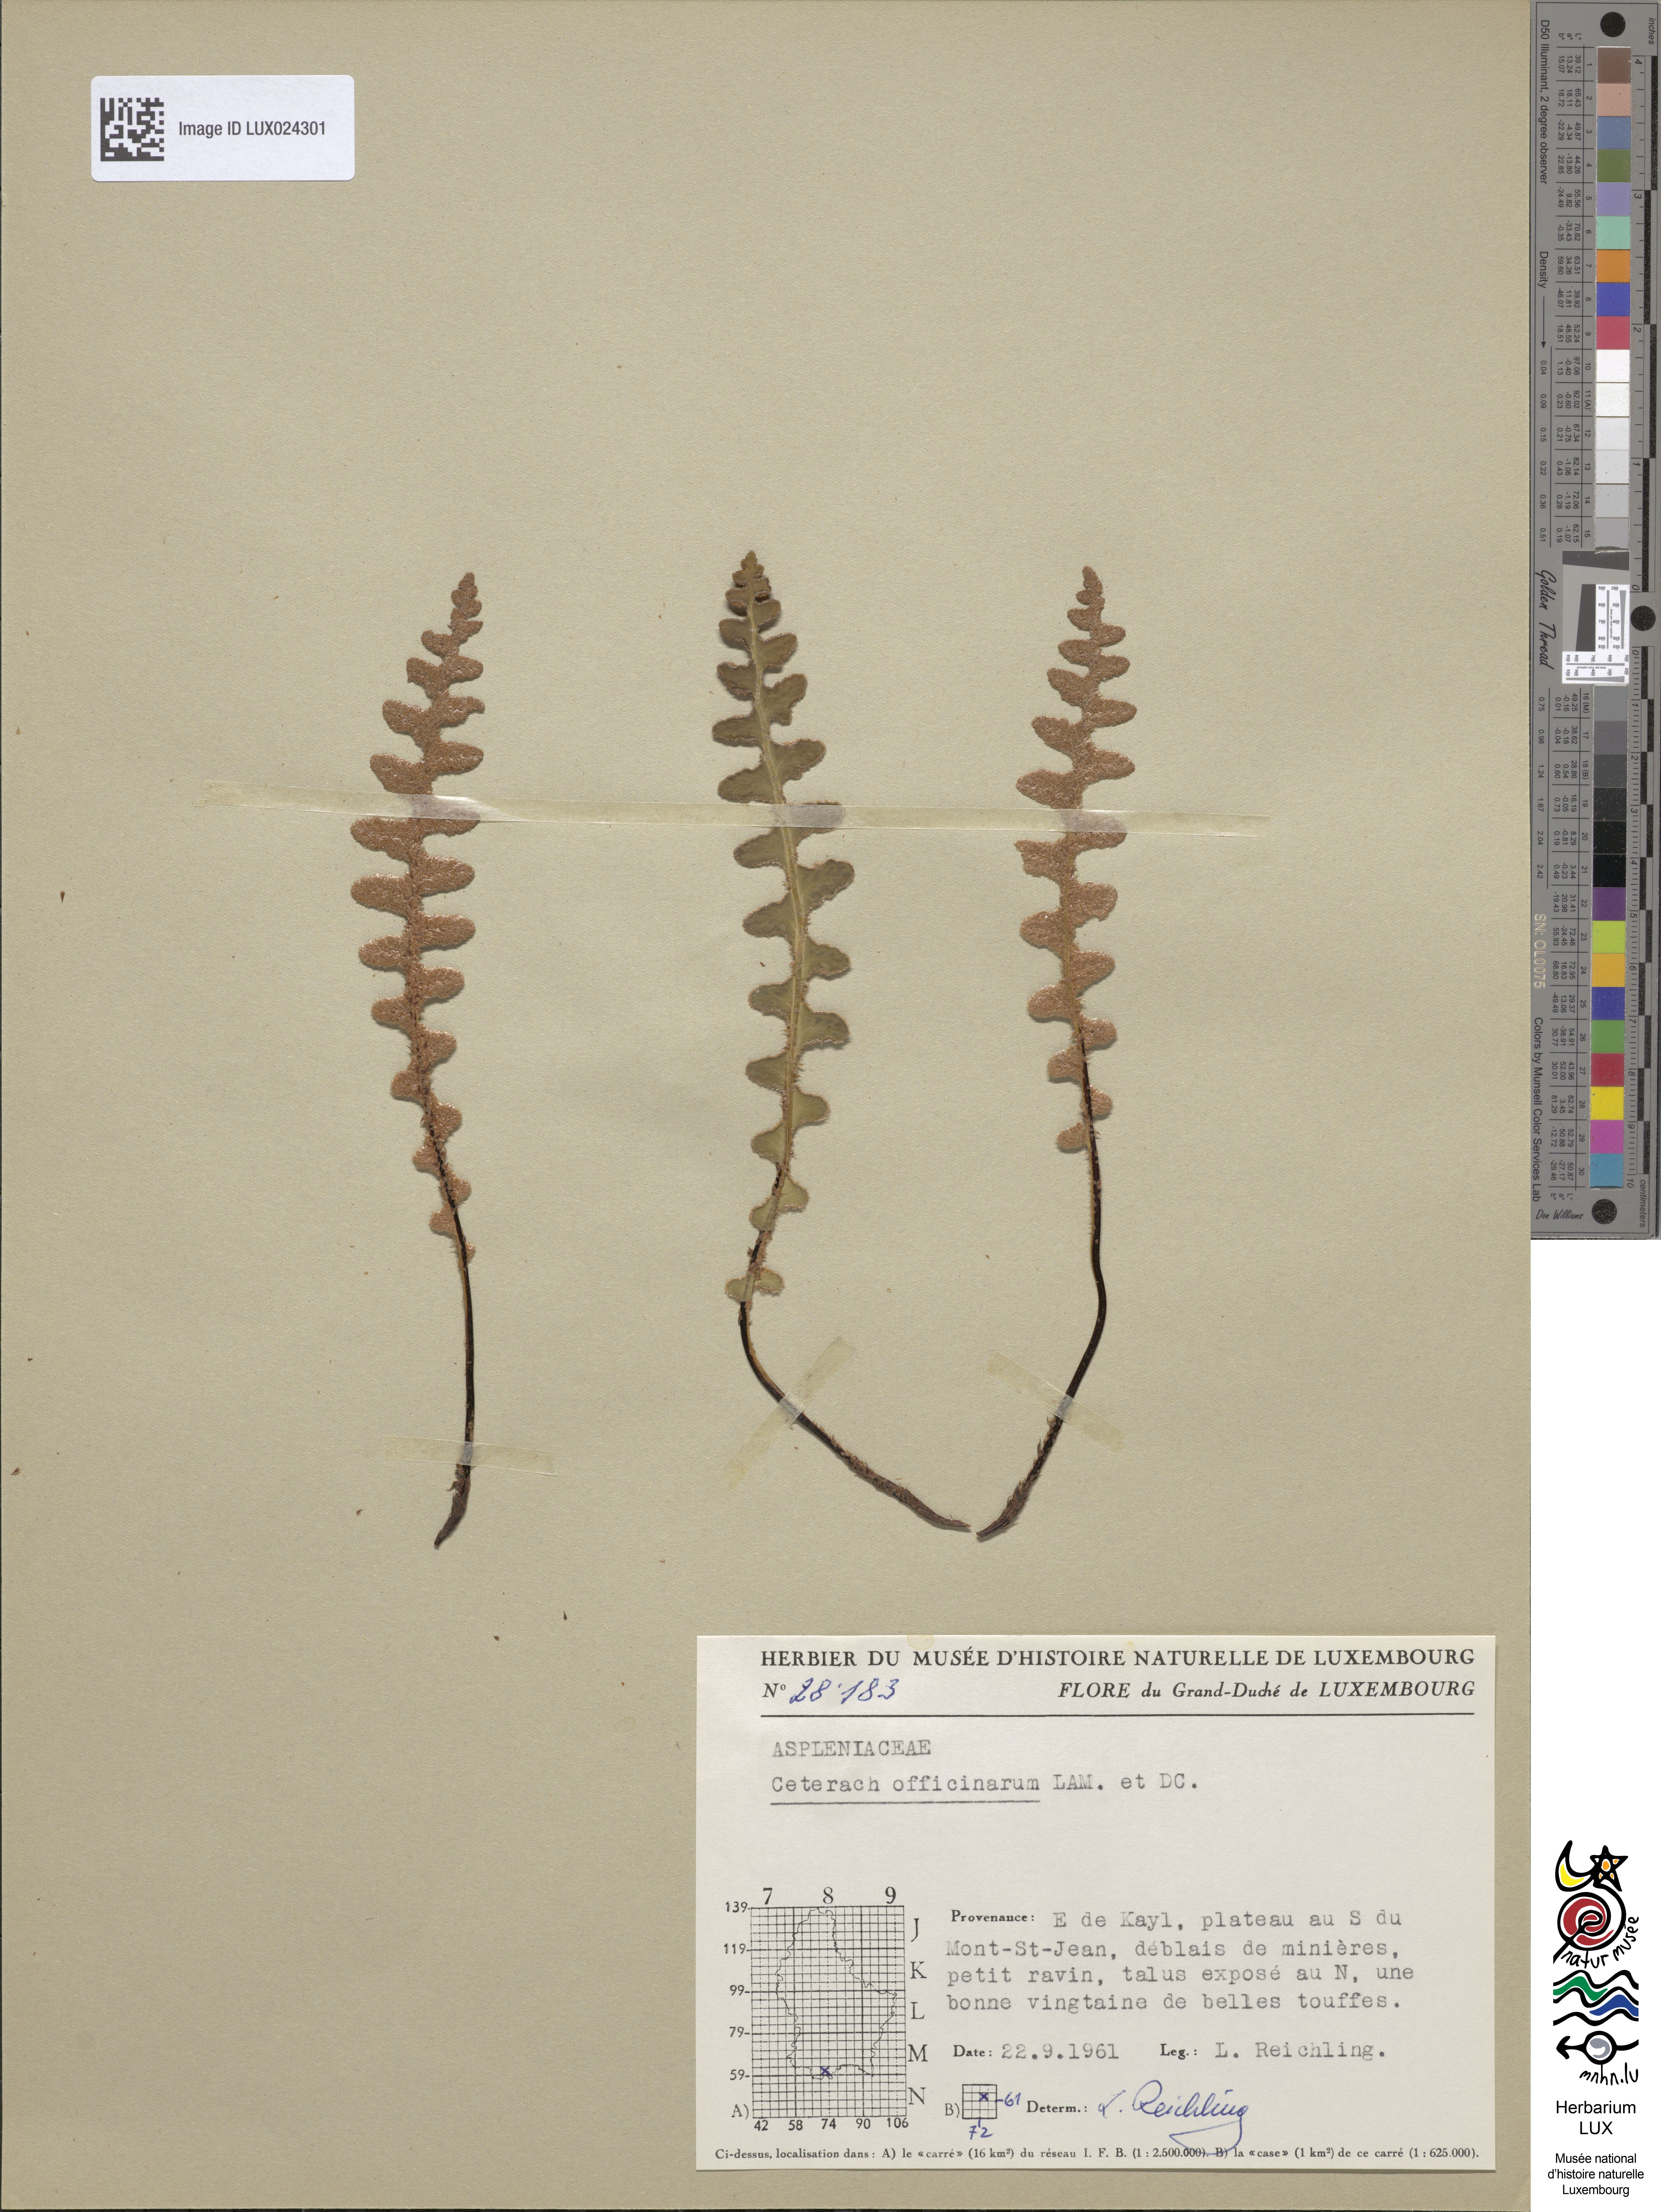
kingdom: Plantae
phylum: Tracheophyta
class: Polypodiopsida
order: Polypodiales
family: Aspleniaceae
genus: Asplenium
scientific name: Asplenium ceterach
